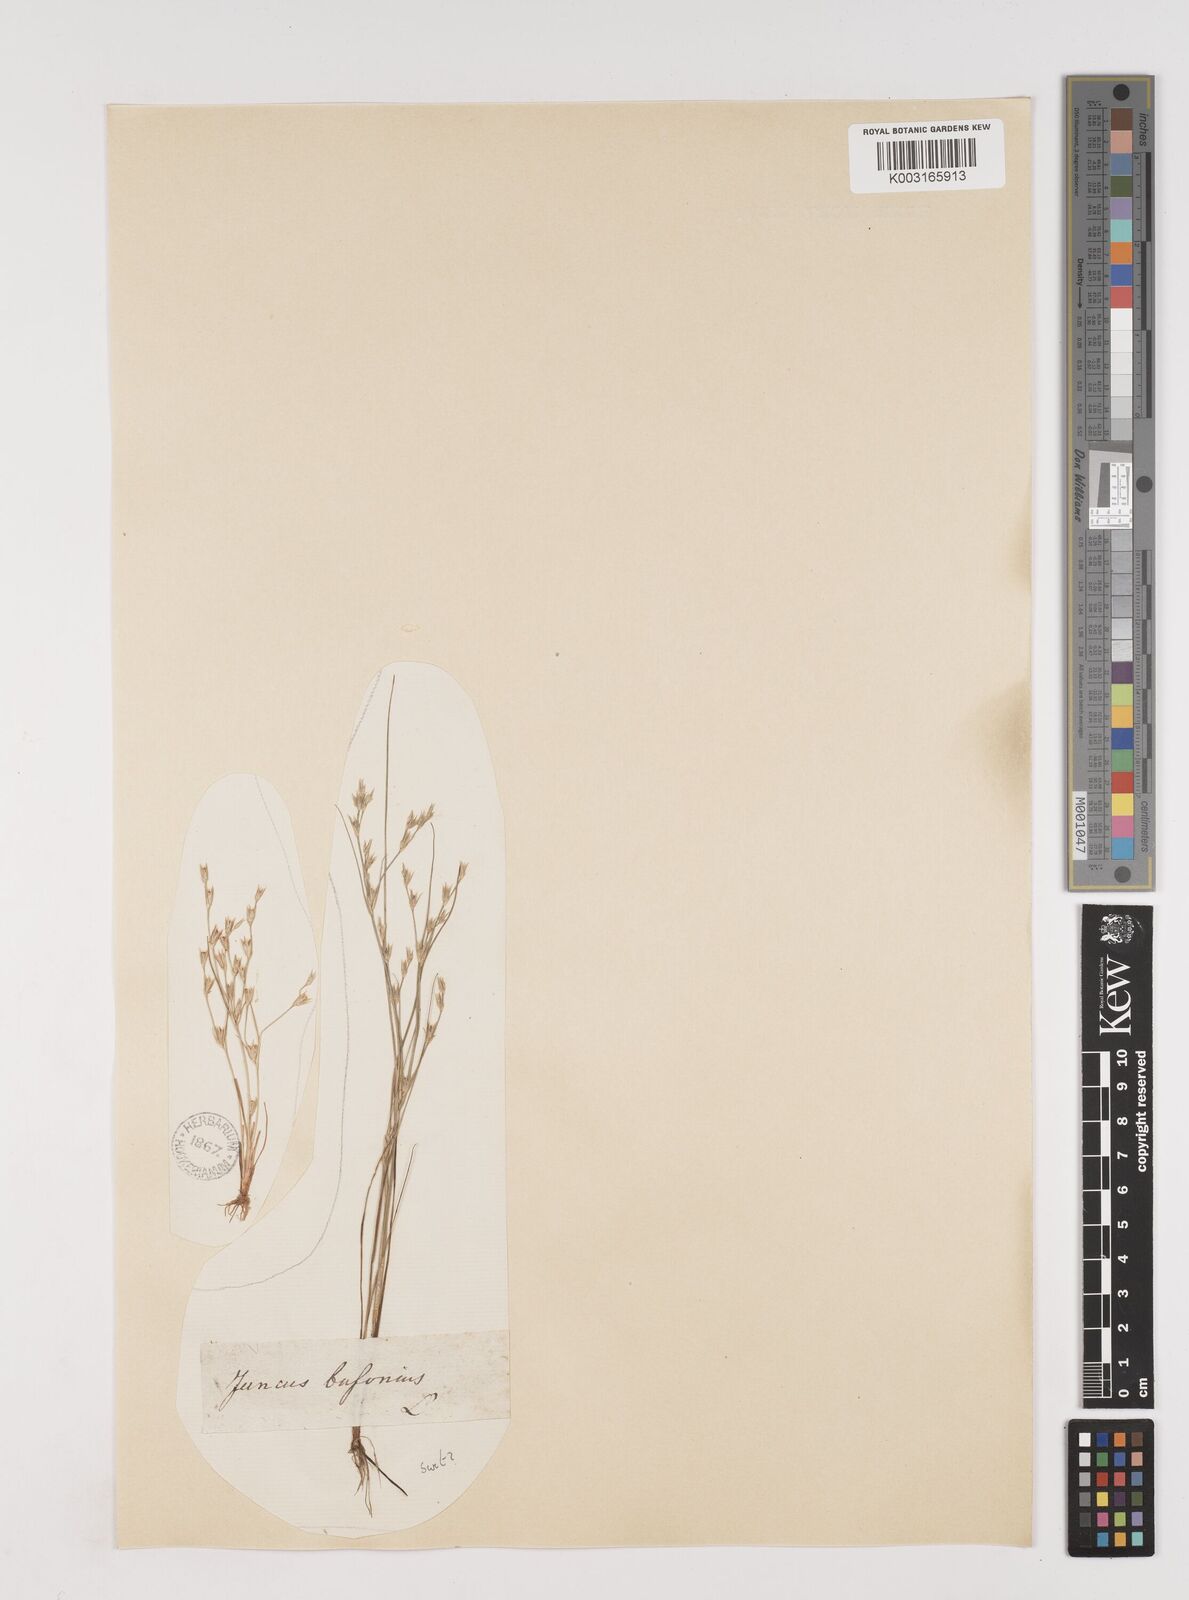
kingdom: Plantae
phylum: Tracheophyta
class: Liliopsida
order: Poales
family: Juncaceae
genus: Juncus
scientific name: Juncus bufonius
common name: Toad rush
